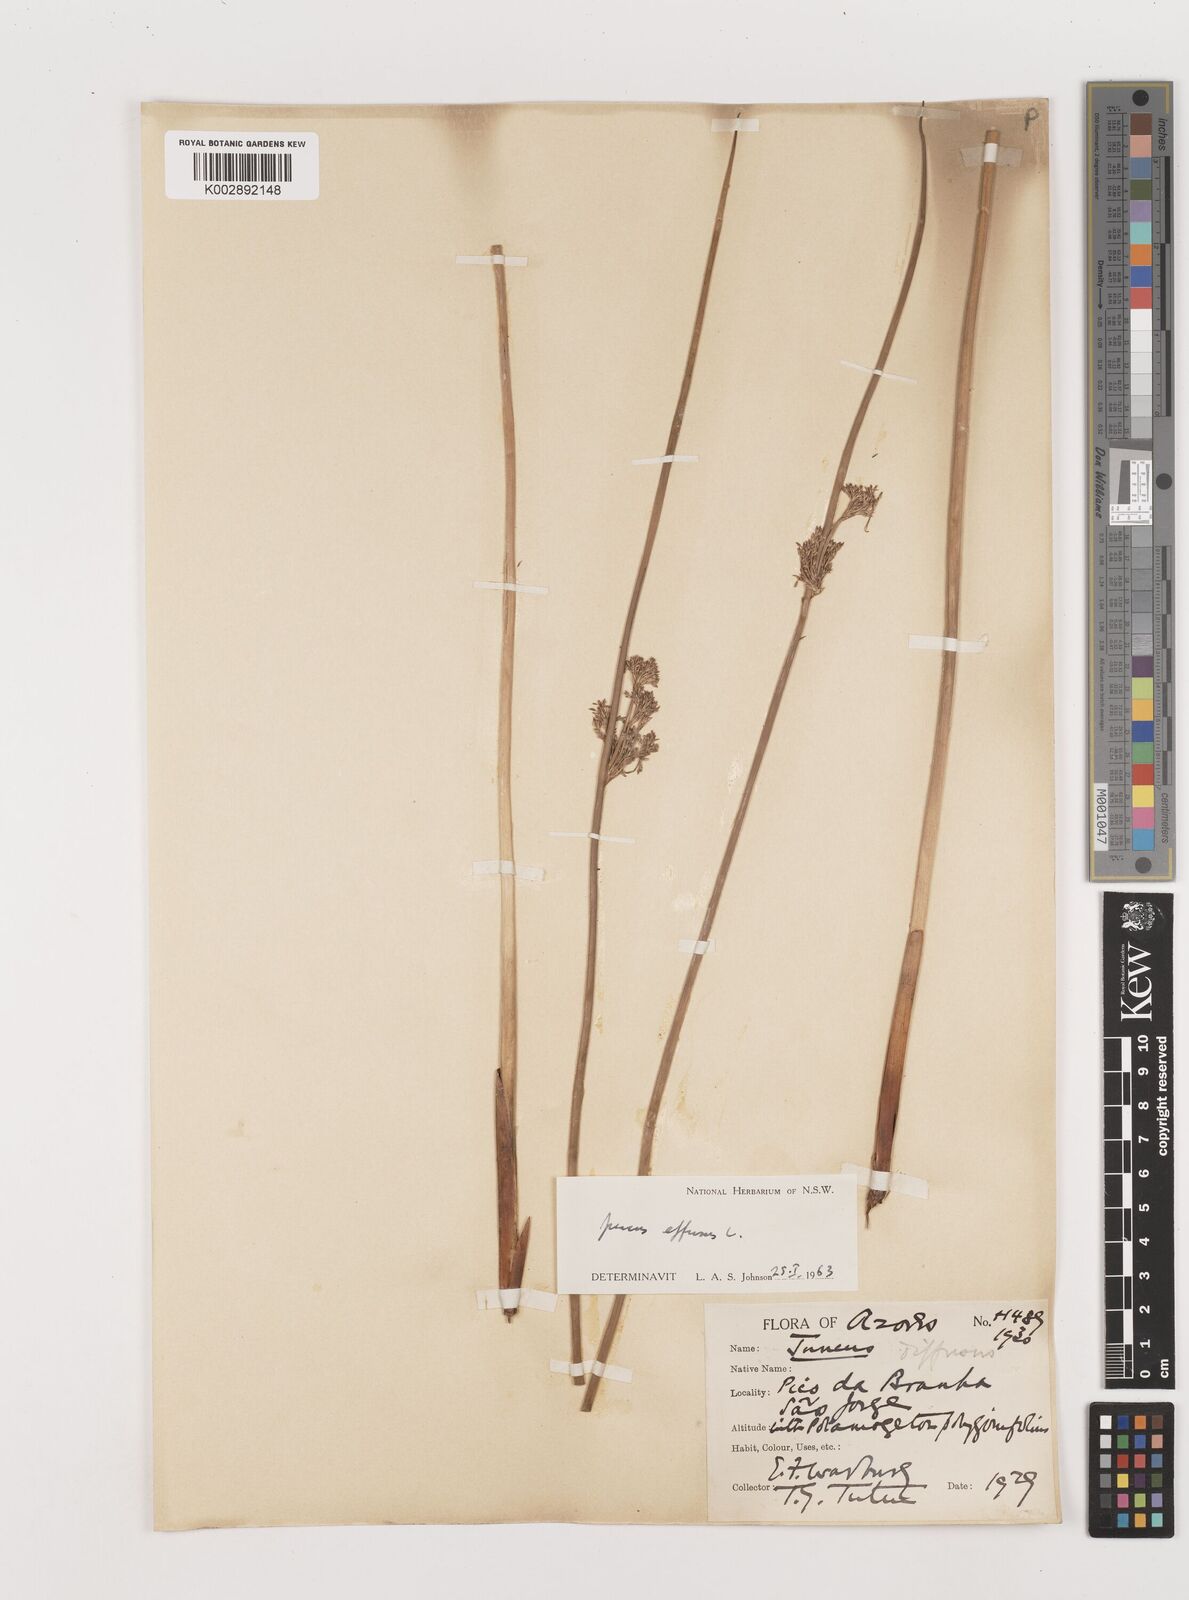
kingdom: Plantae
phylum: Tracheophyta
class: Liliopsida
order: Poales
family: Juncaceae
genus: Juncus
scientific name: Juncus effusus
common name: Soft rush
